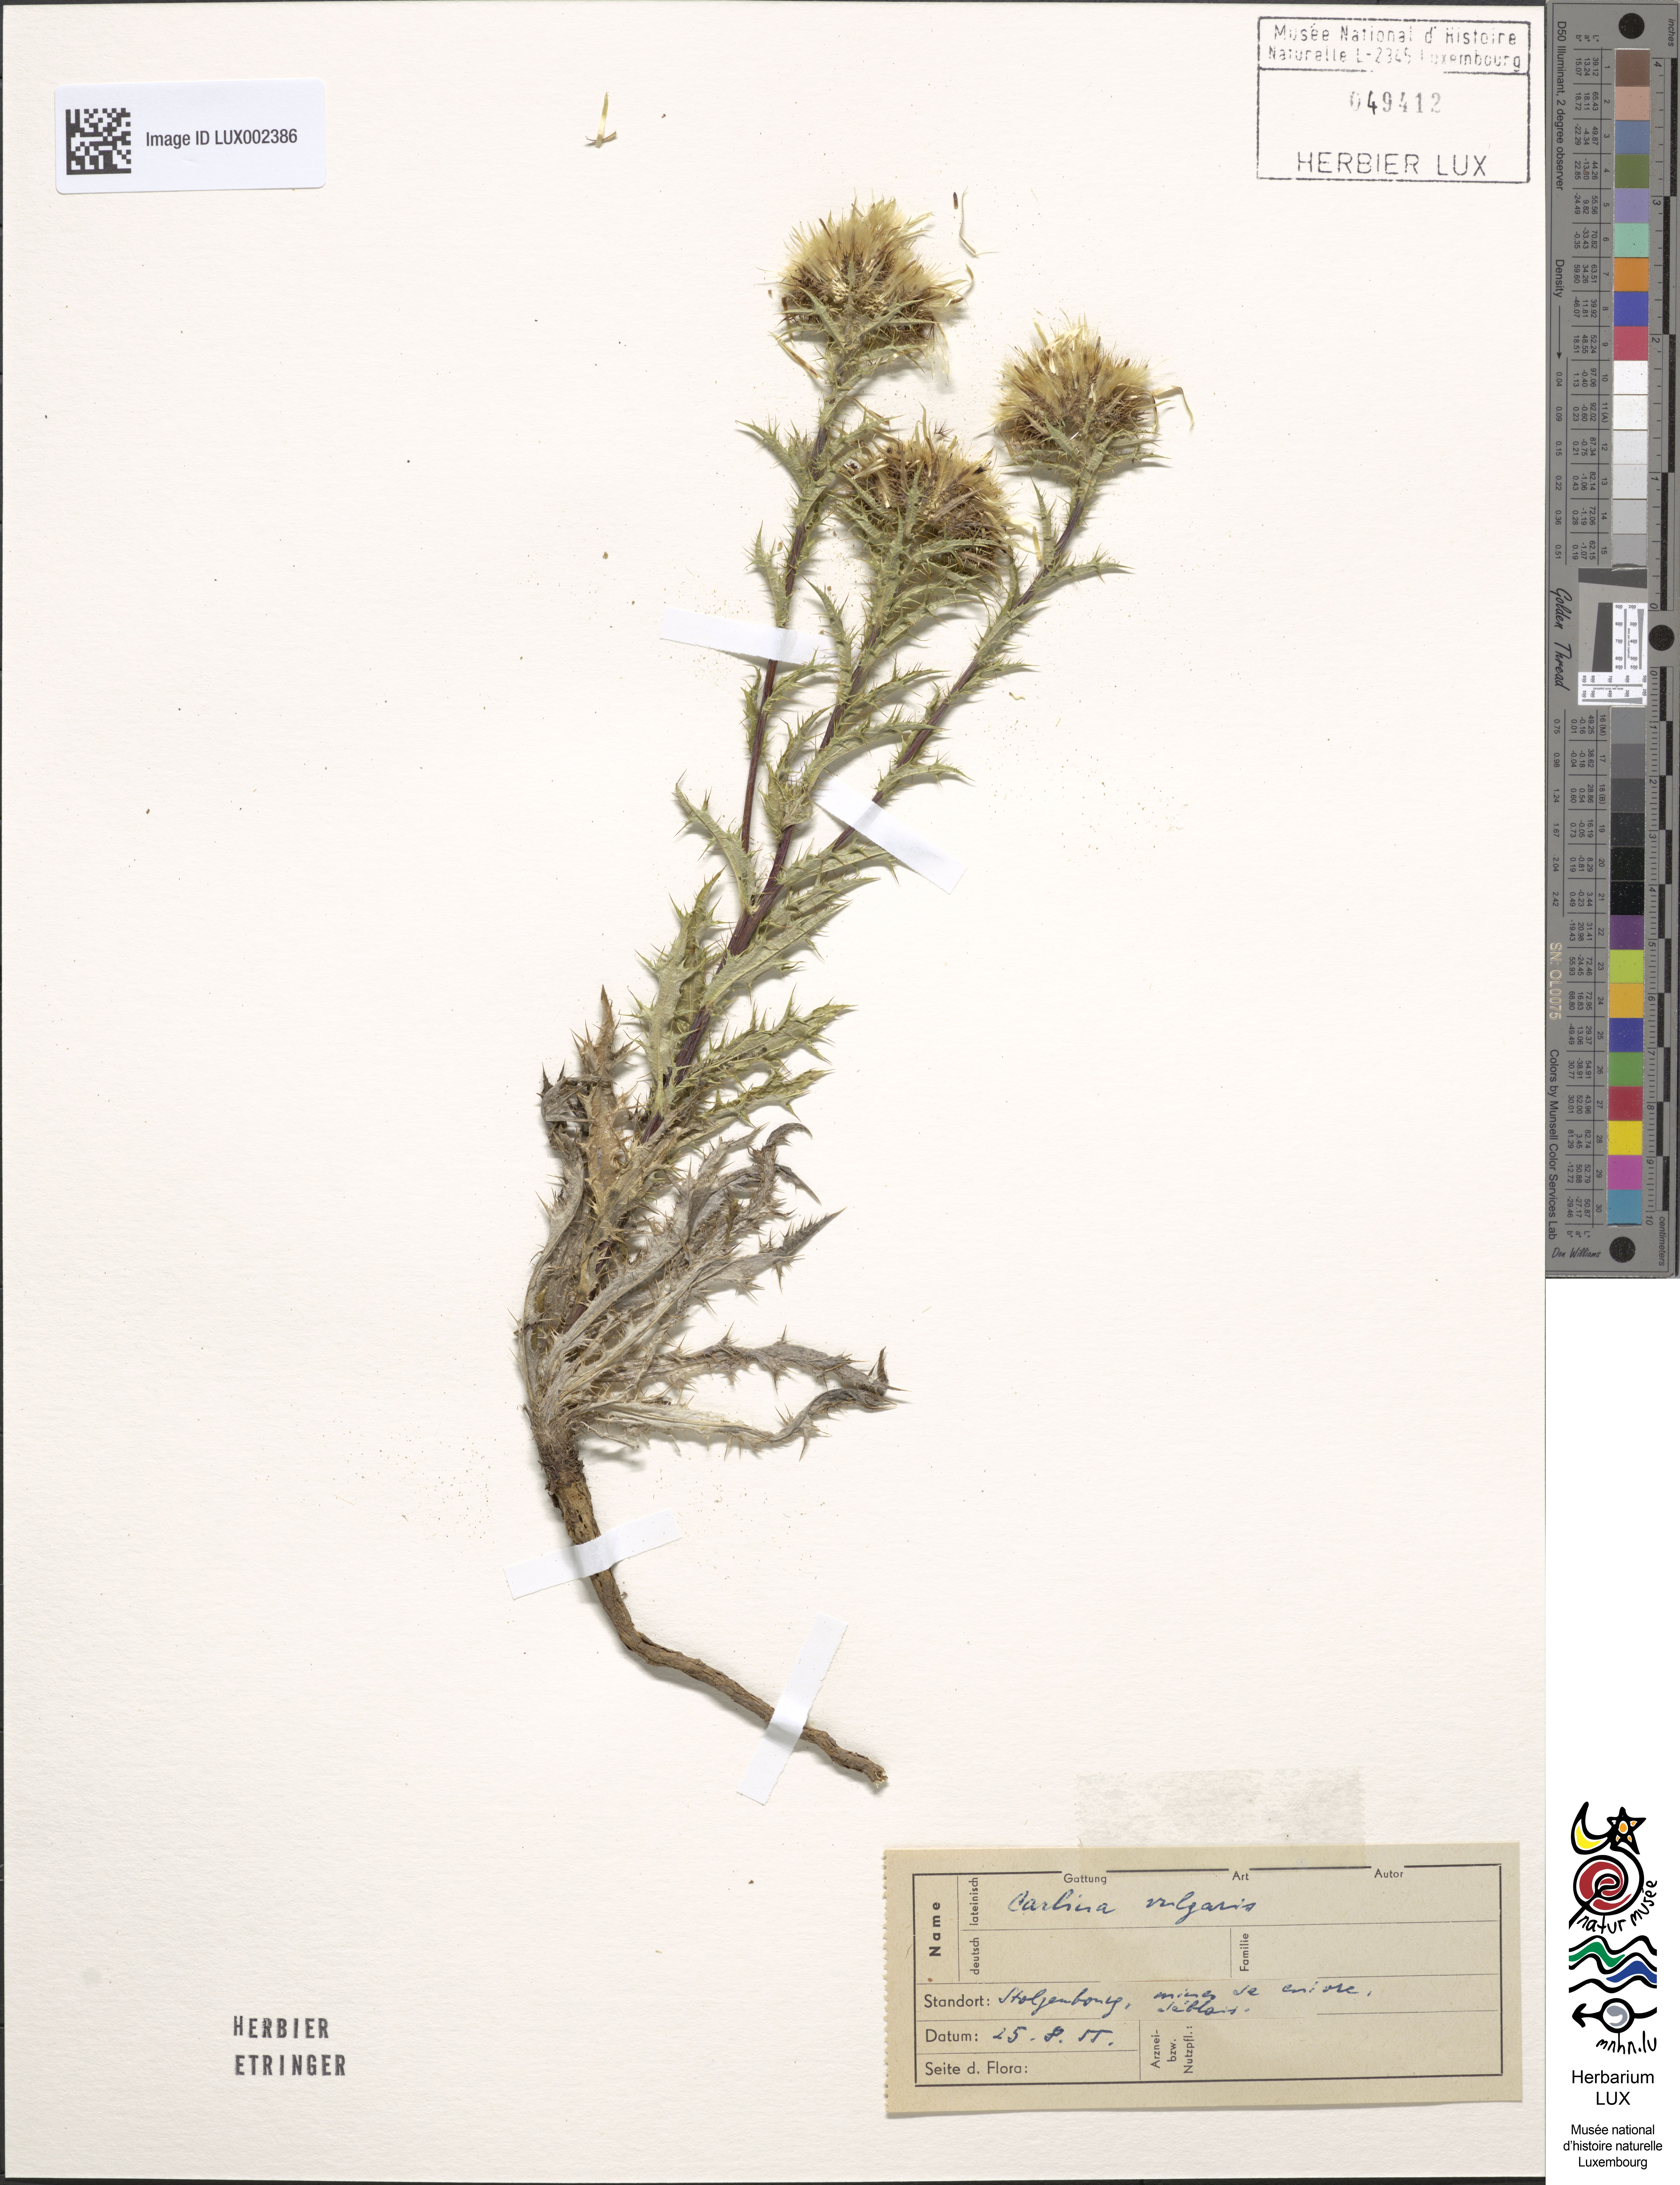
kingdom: Plantae
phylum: Tracheophyta
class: Magnoliopsida
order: Asterales
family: Asteraceae
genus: Carlina
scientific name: Carlina vulgaris
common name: Carline thistle
